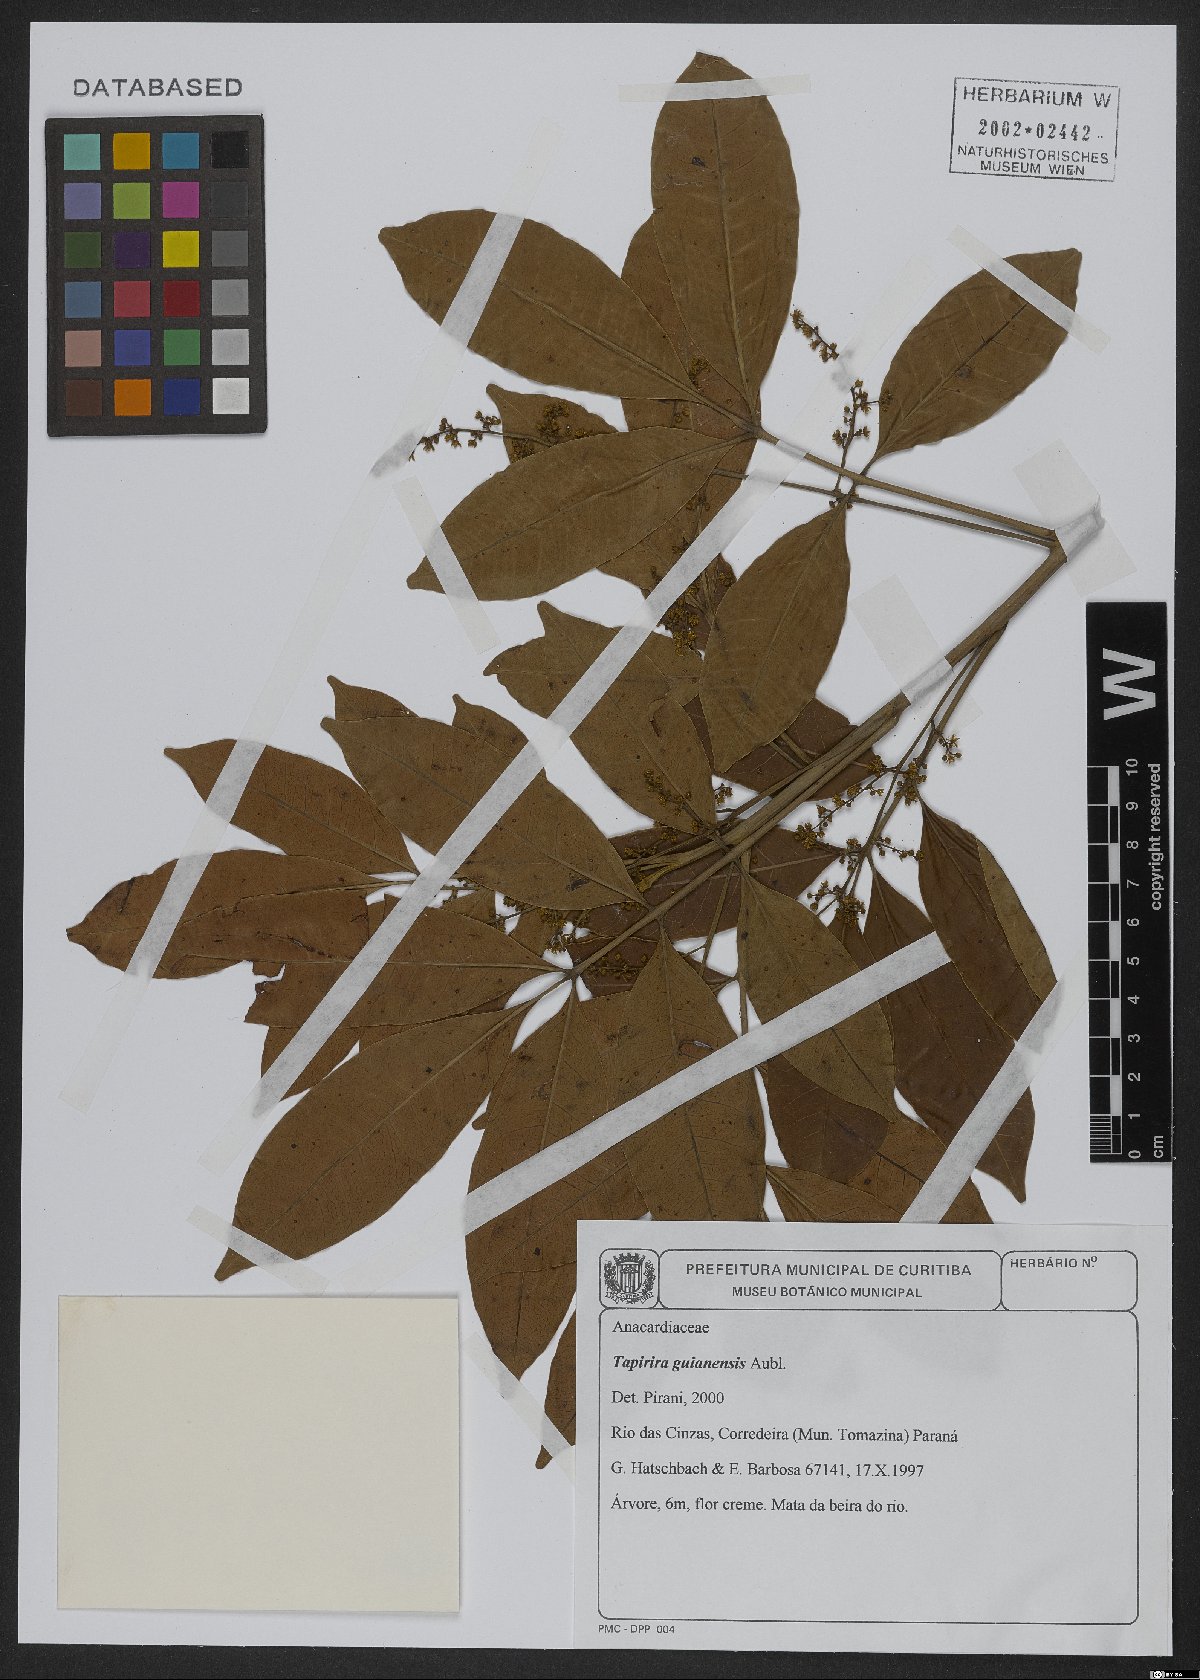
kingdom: Plantae
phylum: Tracheophyta
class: Magnoliopsida
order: Sapindales
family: Anacardiaceae
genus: Tapirira
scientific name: Tapirira guianensis
